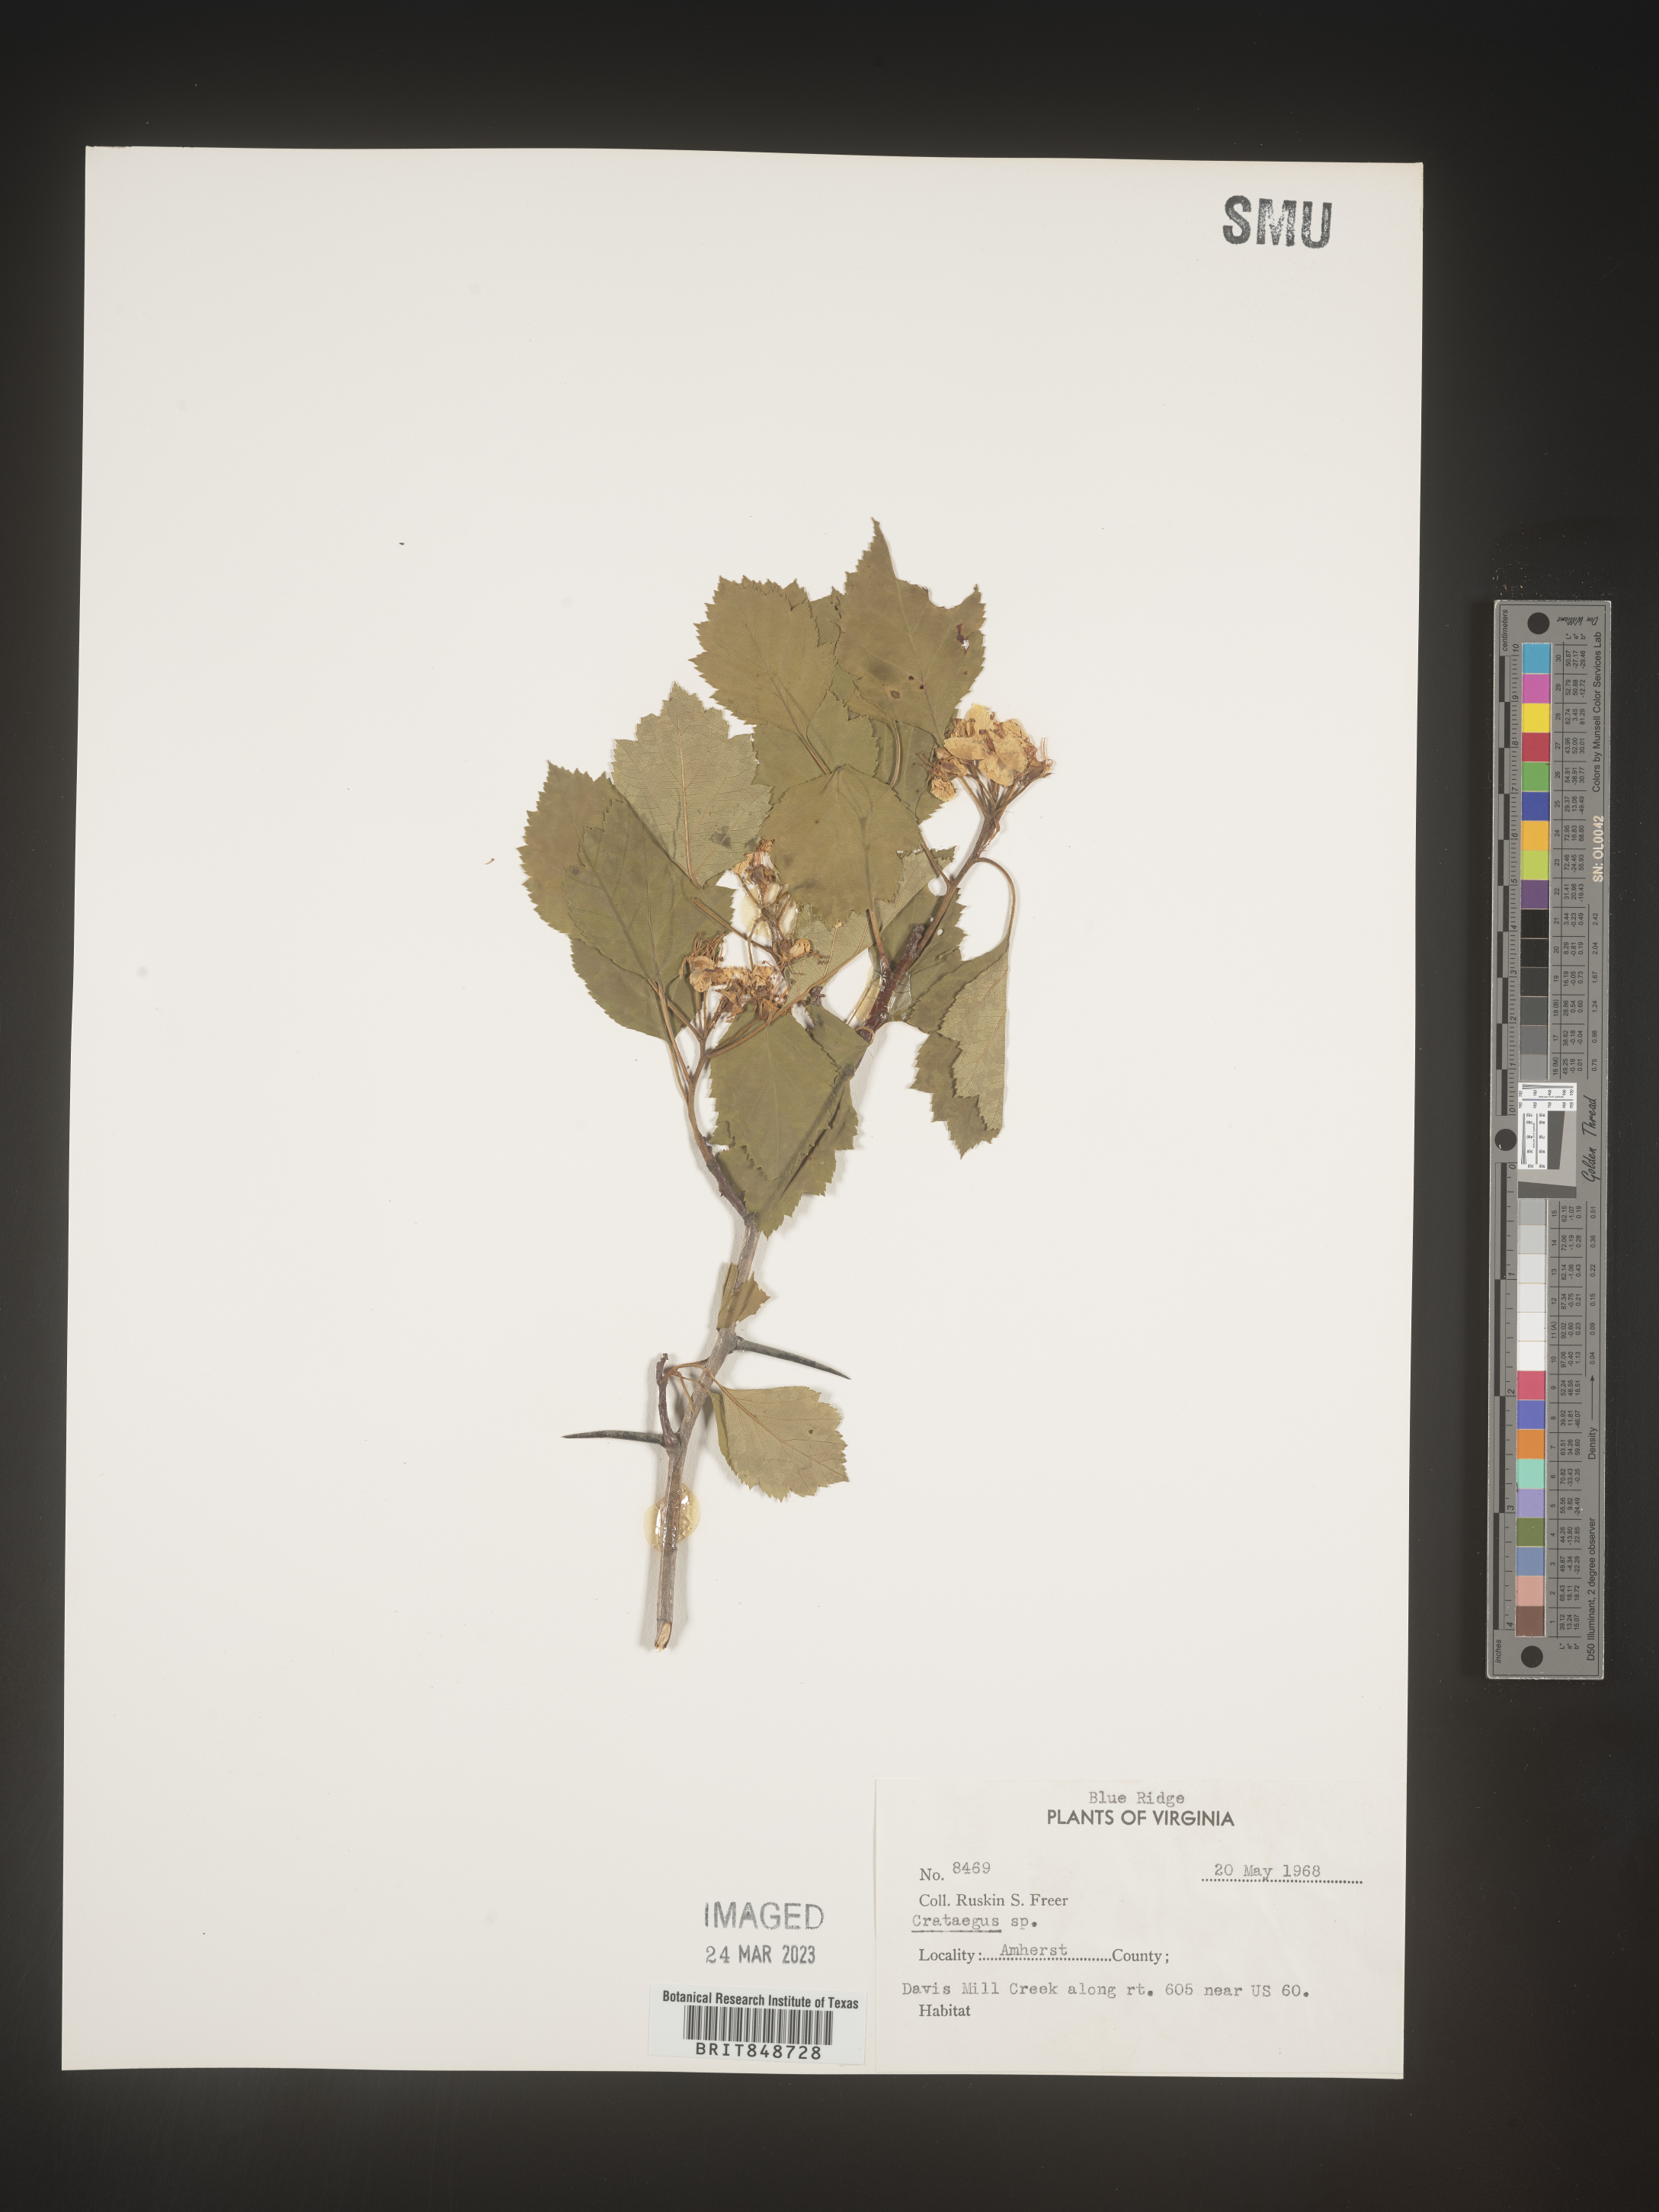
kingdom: Plantae
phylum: Tracheophyta
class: Magnoliopsida
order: Rosales
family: Rosaceae
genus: Crataegus
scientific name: Crataegus
